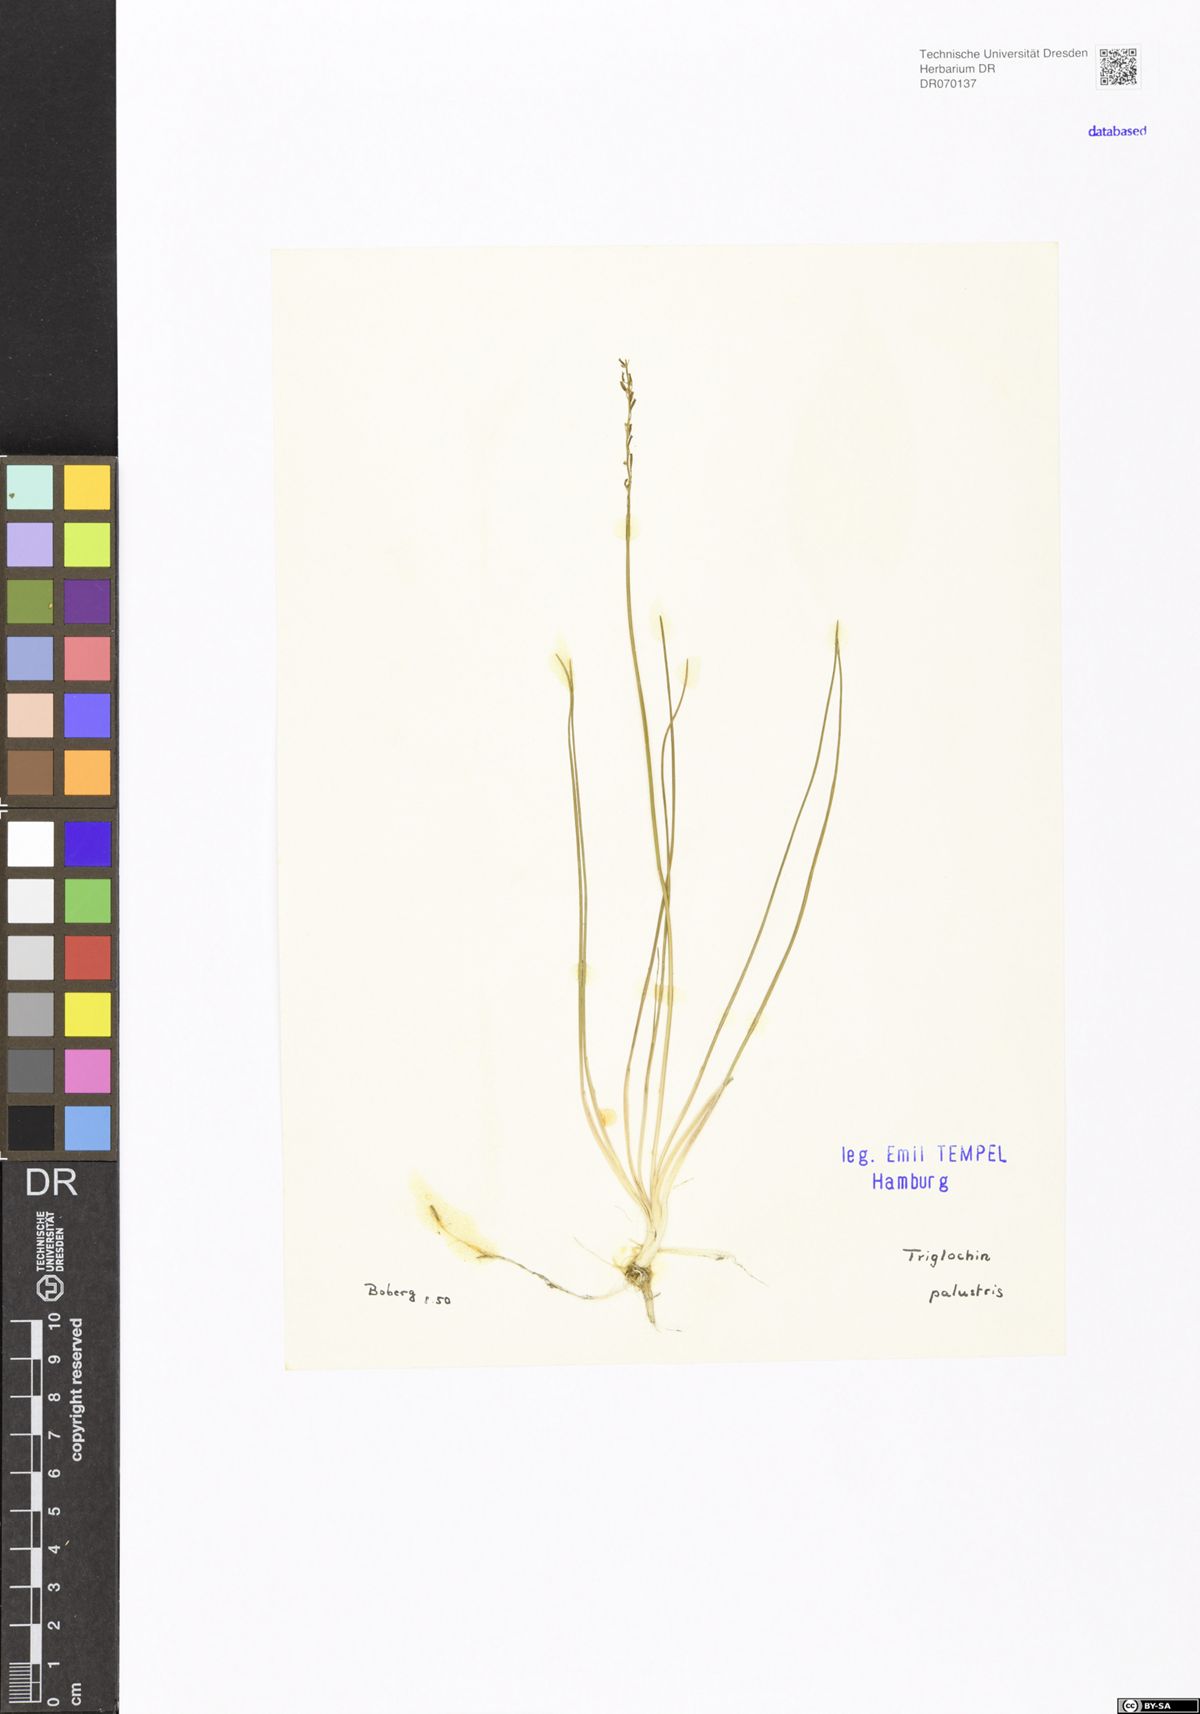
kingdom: Plantae
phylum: Tracheophyta
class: Liliopsida
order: Alismatales
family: Juncaginaceae
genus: Triglochin
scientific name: Triglochin palustris
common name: Marsh arrowgrass
